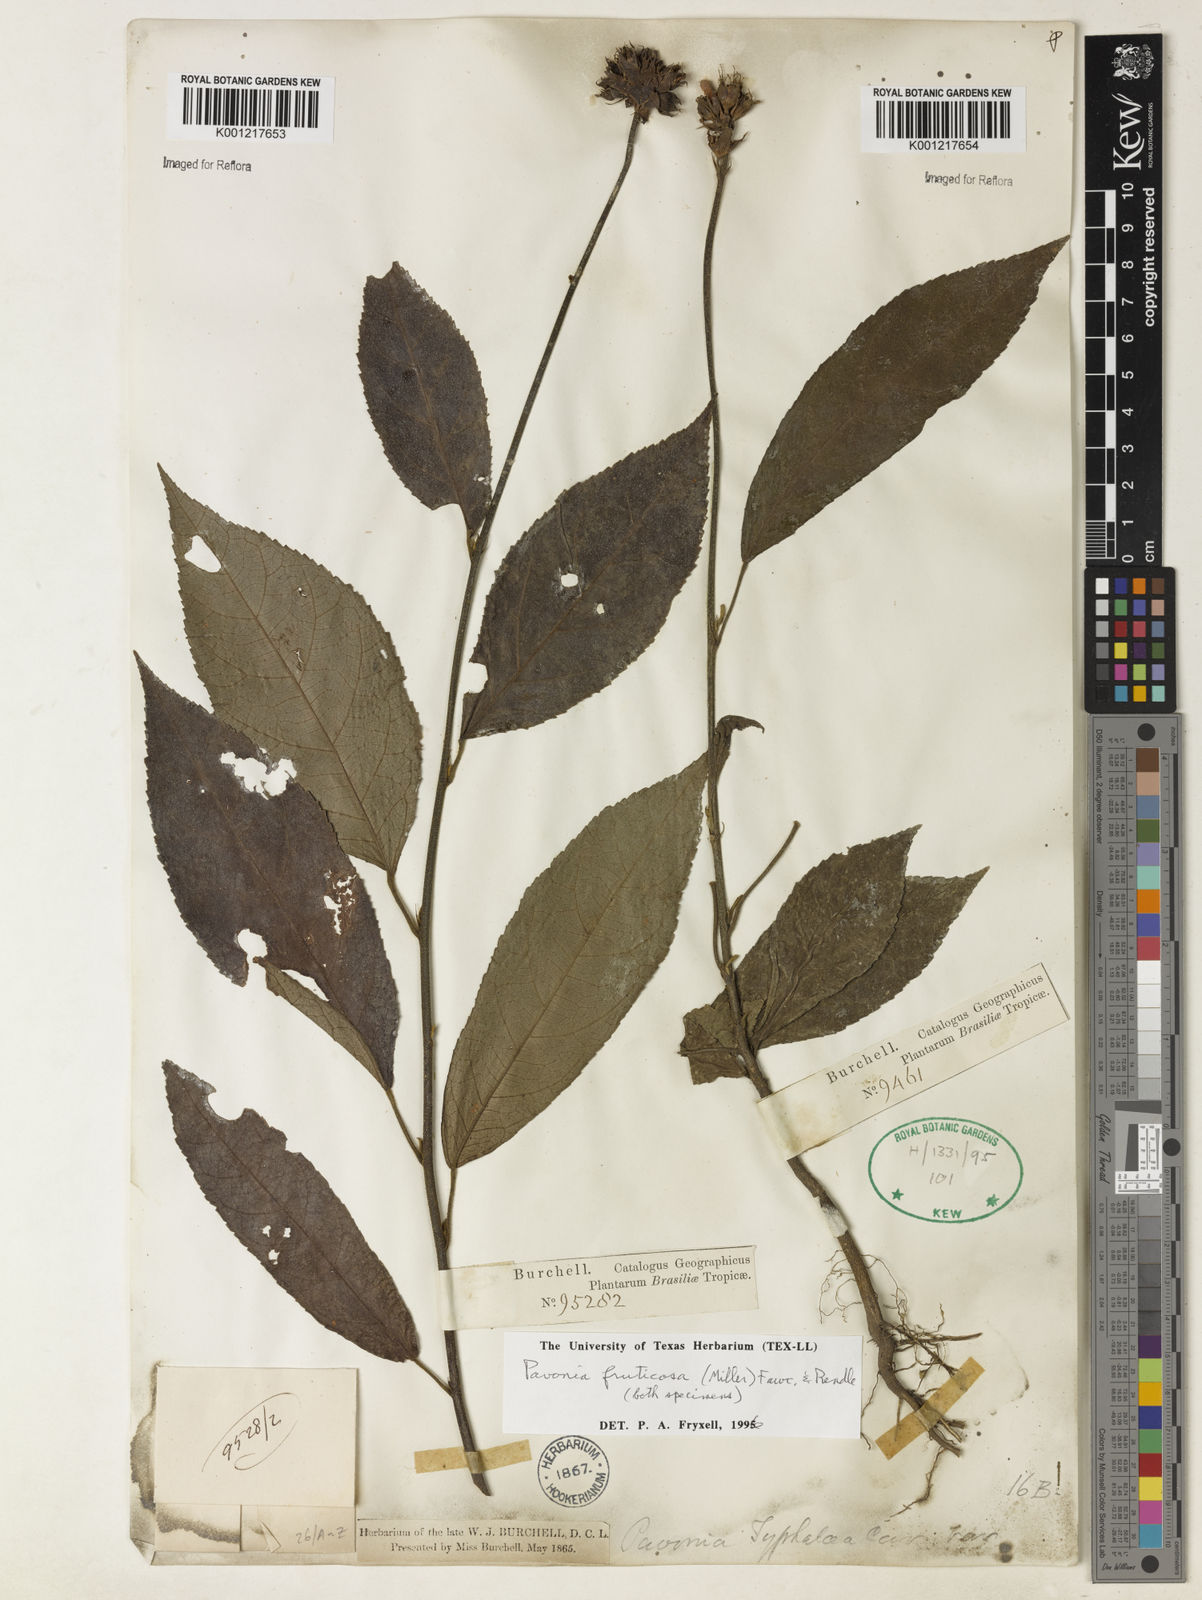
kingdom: Plantae
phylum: Tracheophyta
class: Magnoliopsida
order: Malvales
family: Malvaceae
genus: Pavonia
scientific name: Pavonia fruticosa
